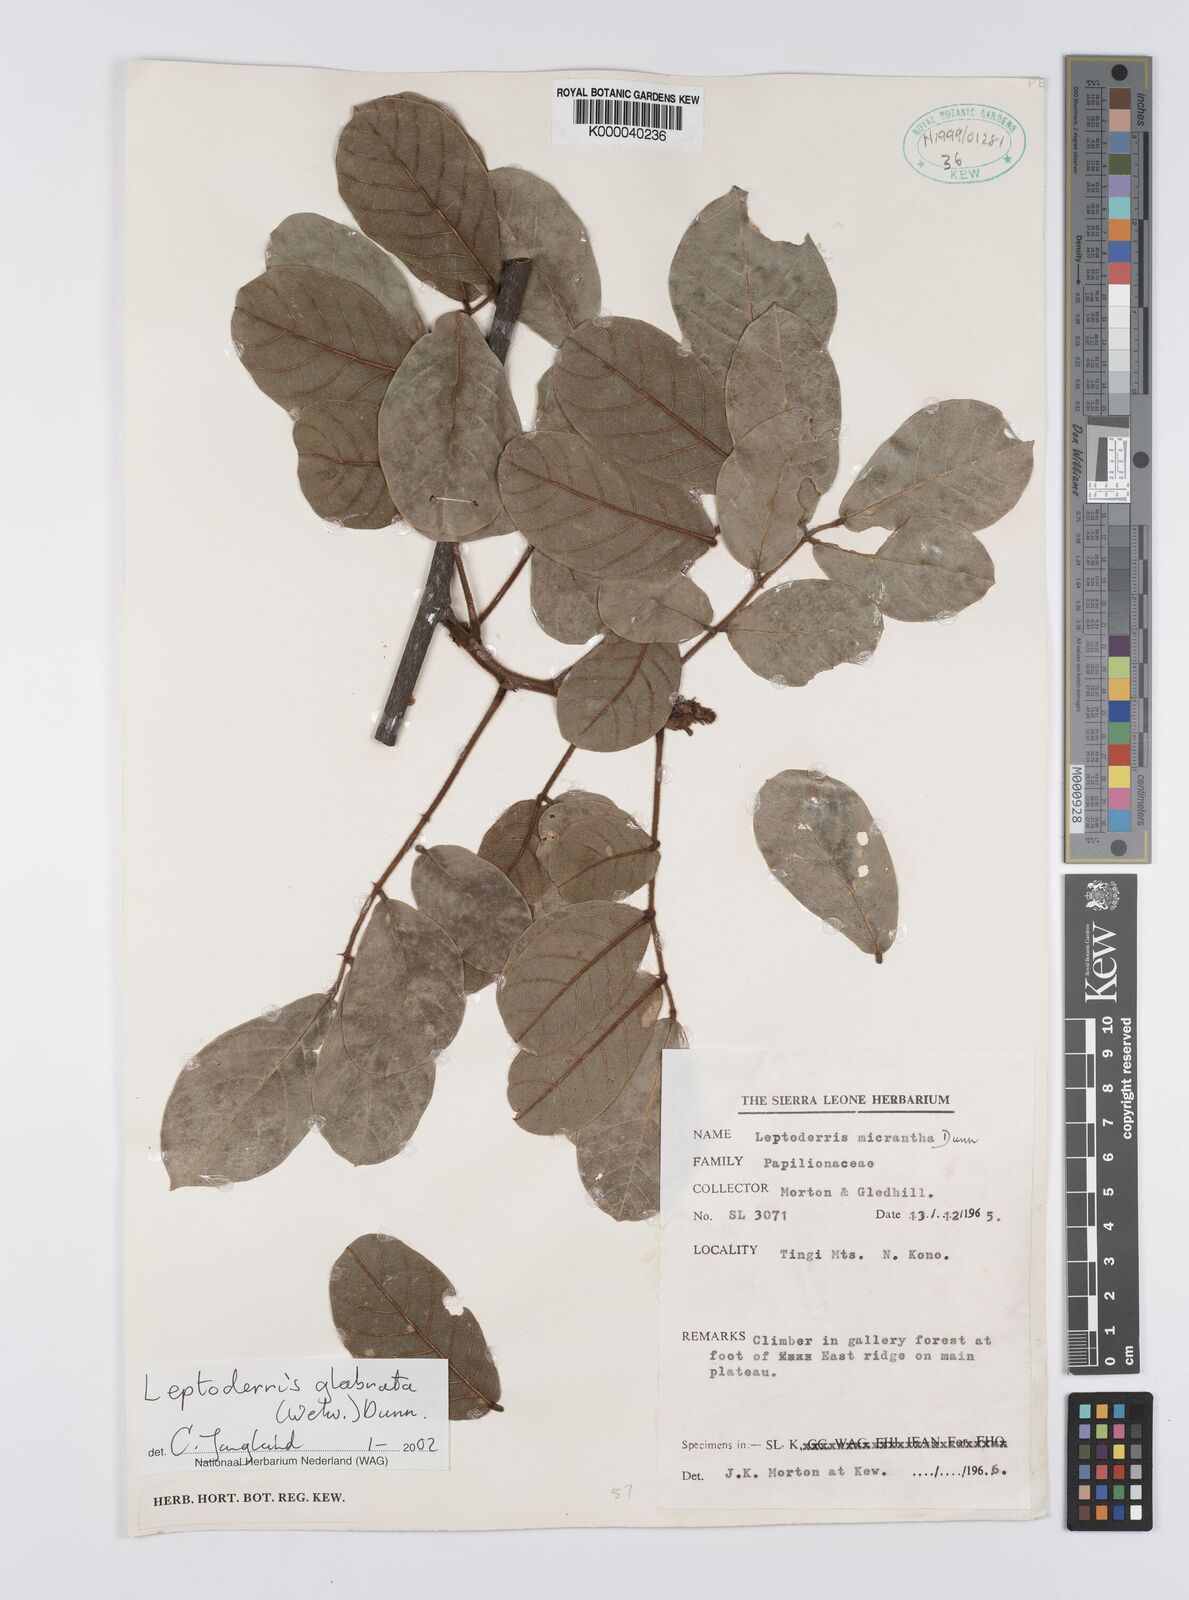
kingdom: Plantae
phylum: Tracheophyta
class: Magnoliopsida
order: Fabales
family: Fabaceae
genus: Leptoderris
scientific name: Leptoderris micrantha
